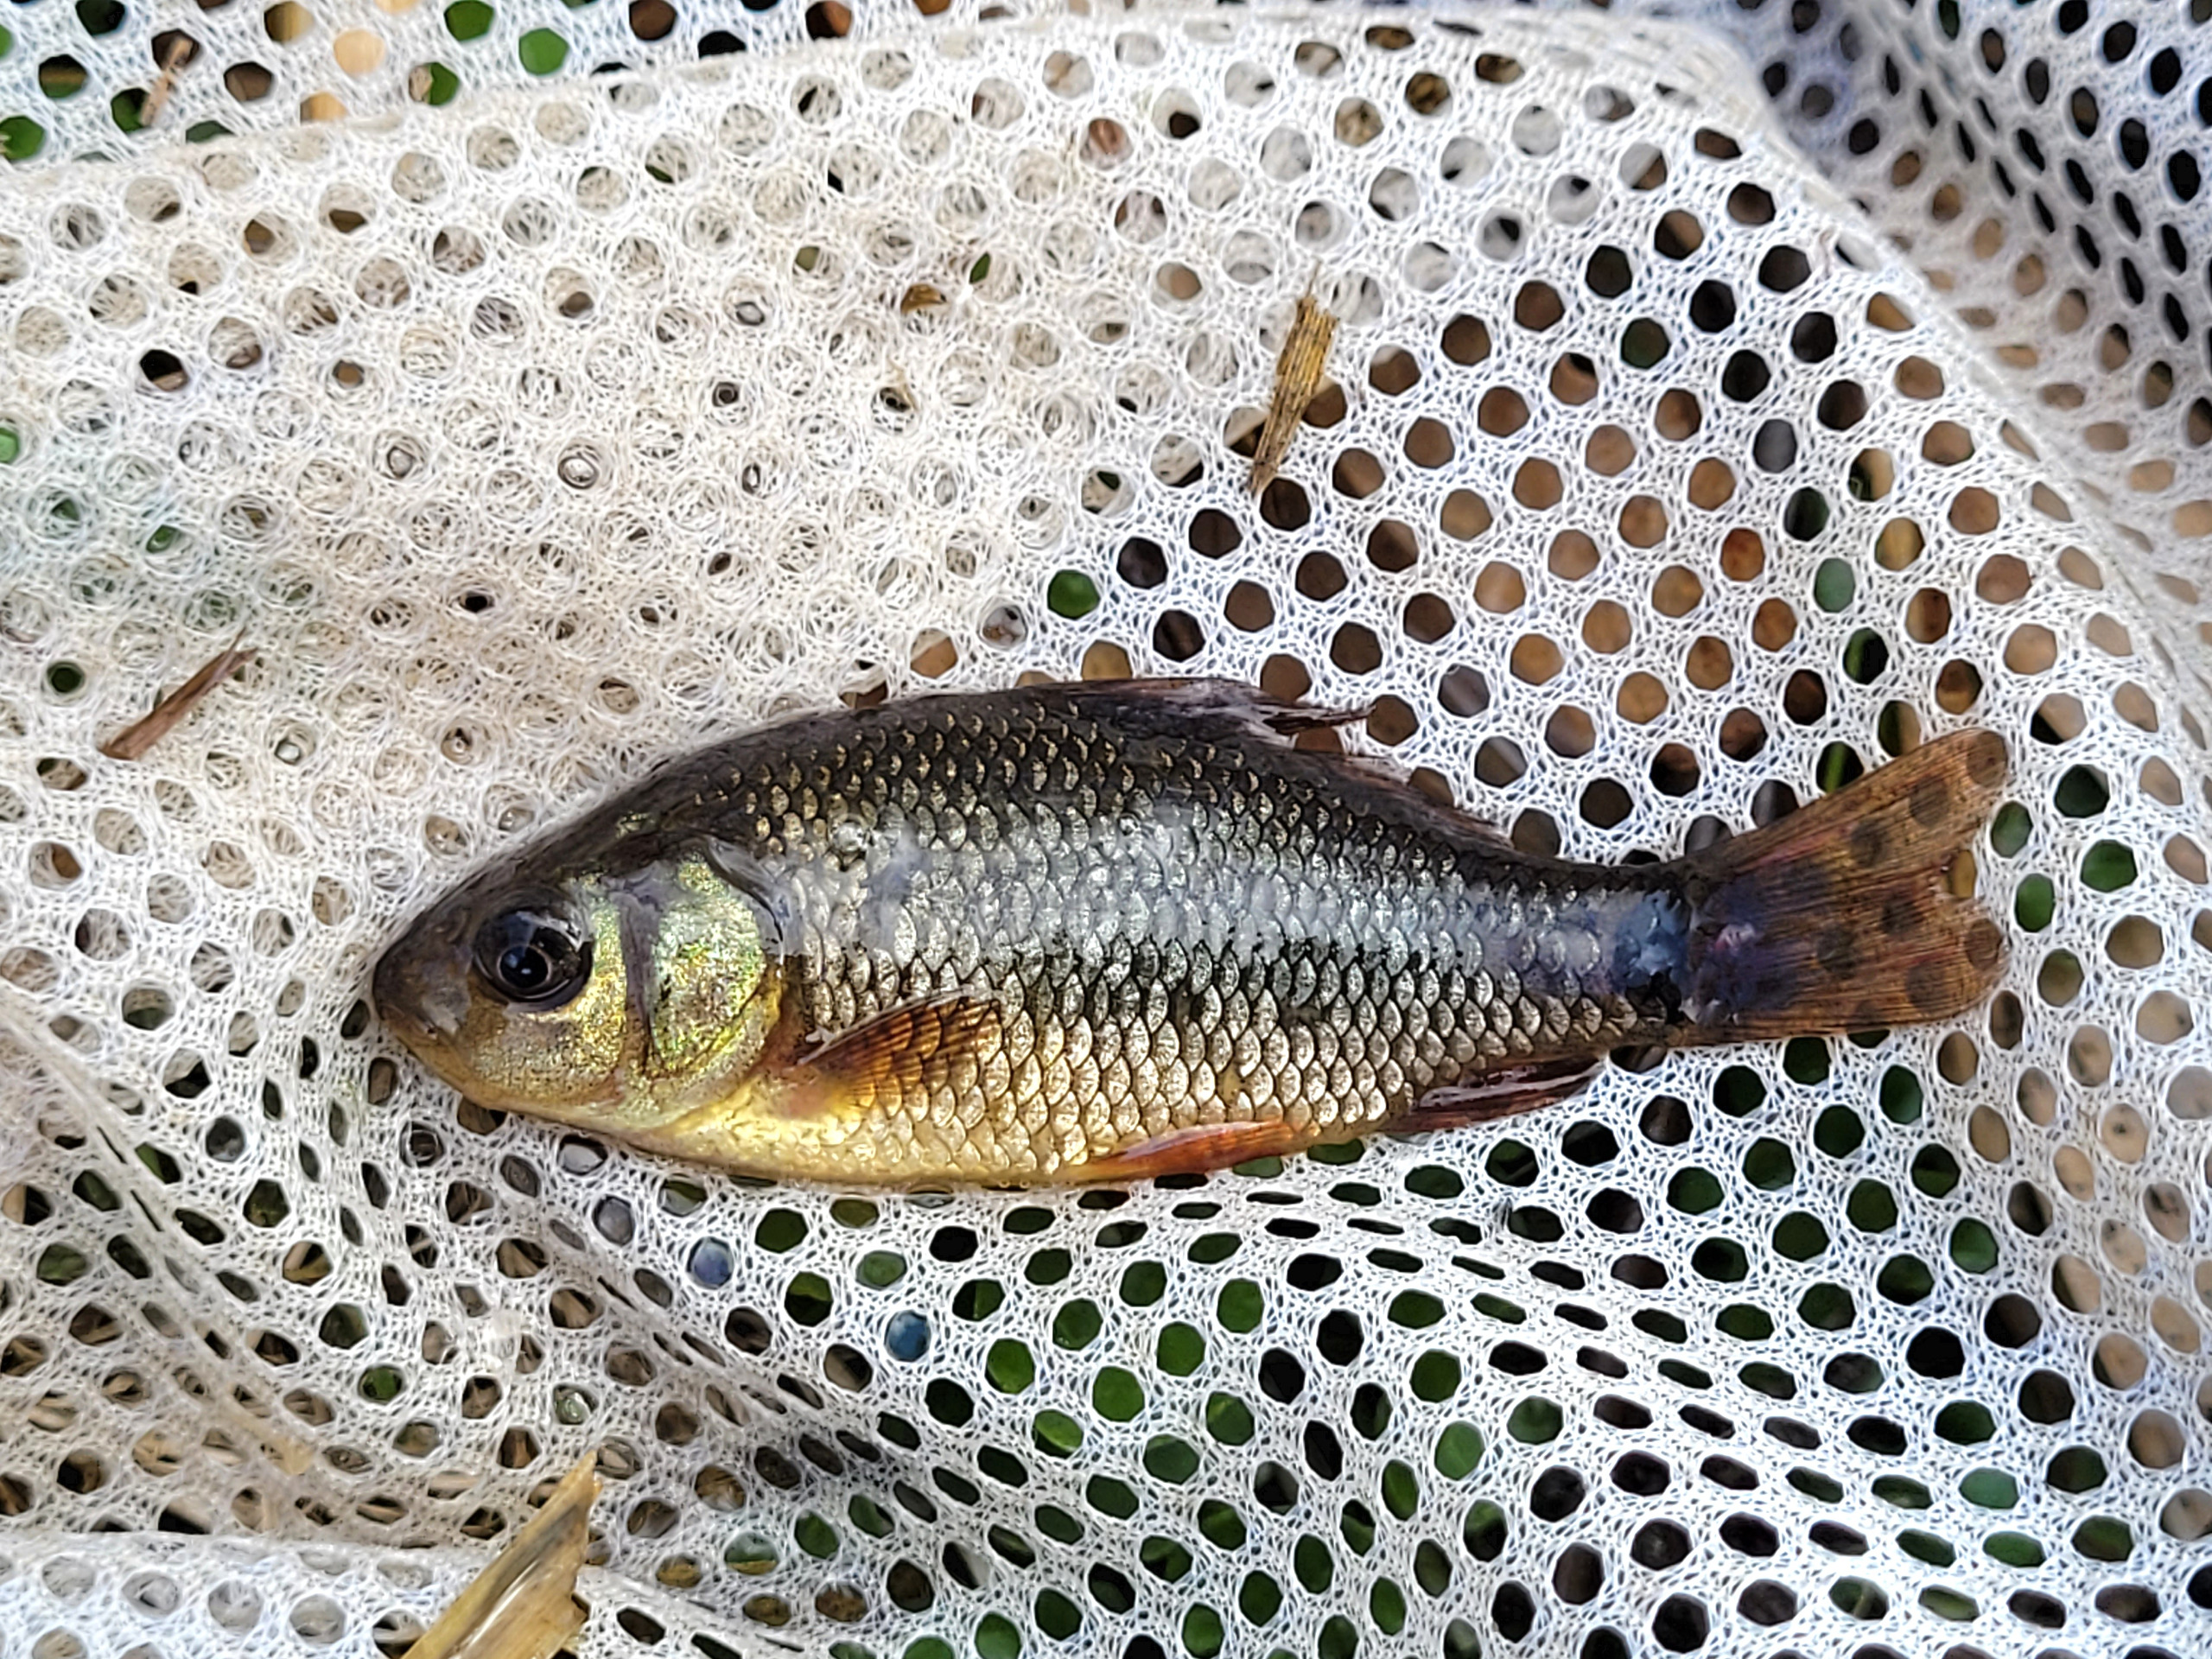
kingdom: Animalia
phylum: Chordata
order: Cypriniformes
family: Cyprinidae
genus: Carassius
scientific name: Carassius carassius
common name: Karusse
